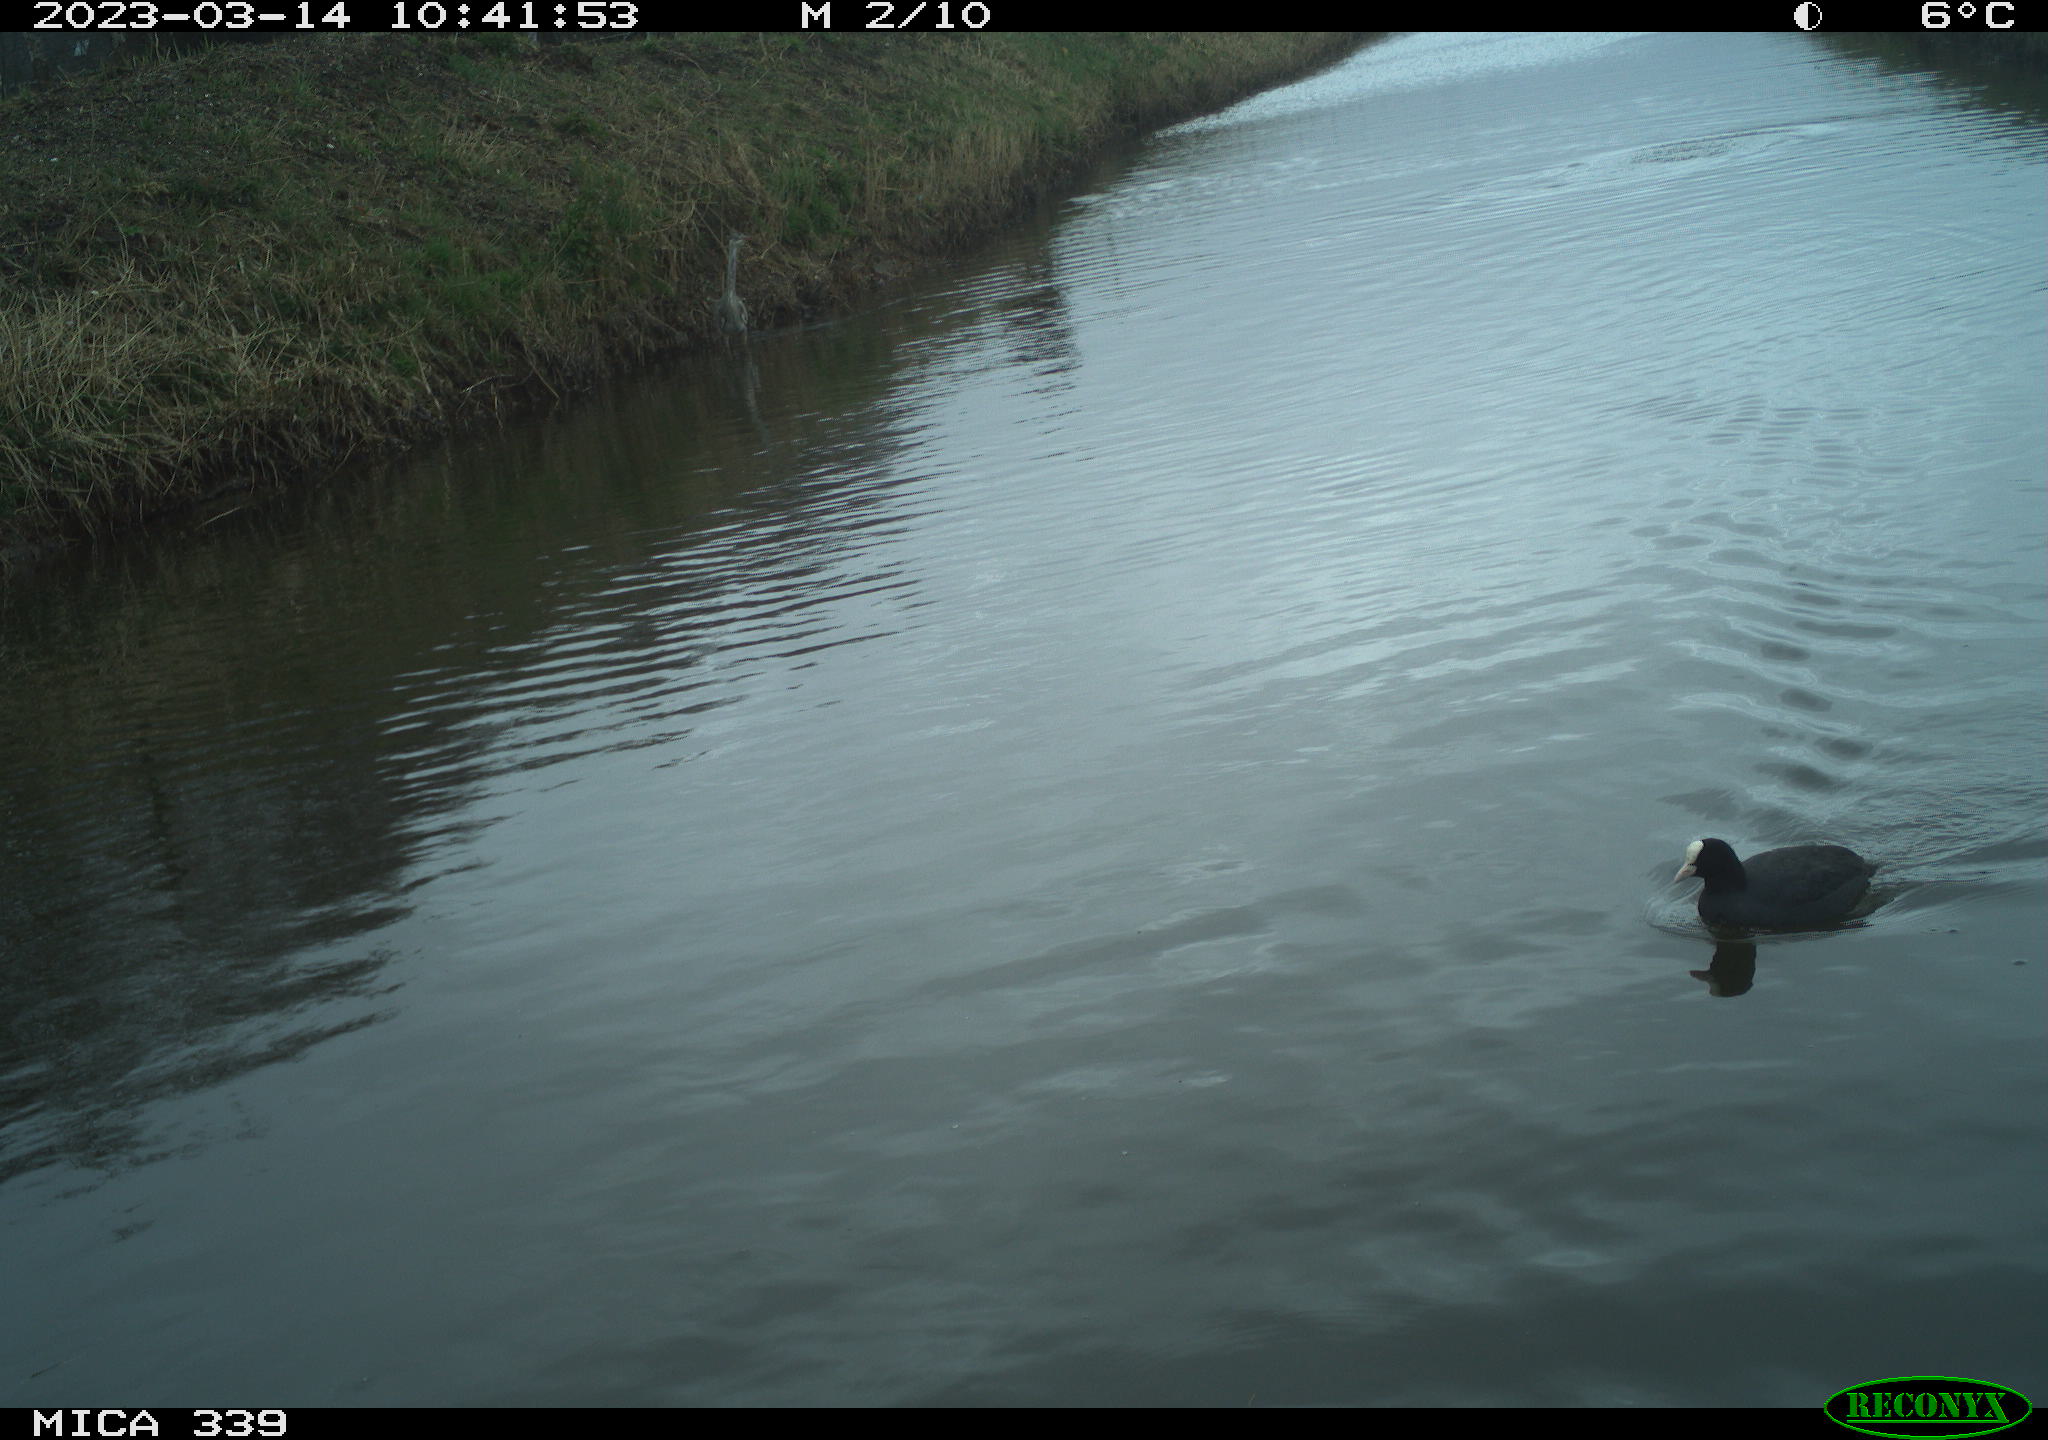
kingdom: Animalia
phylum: Chordata
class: Aves
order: Suliformes
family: Phalacrocoracidae
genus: Phalacrocorax
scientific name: Phalacrocorax carbo
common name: Great cormorant
